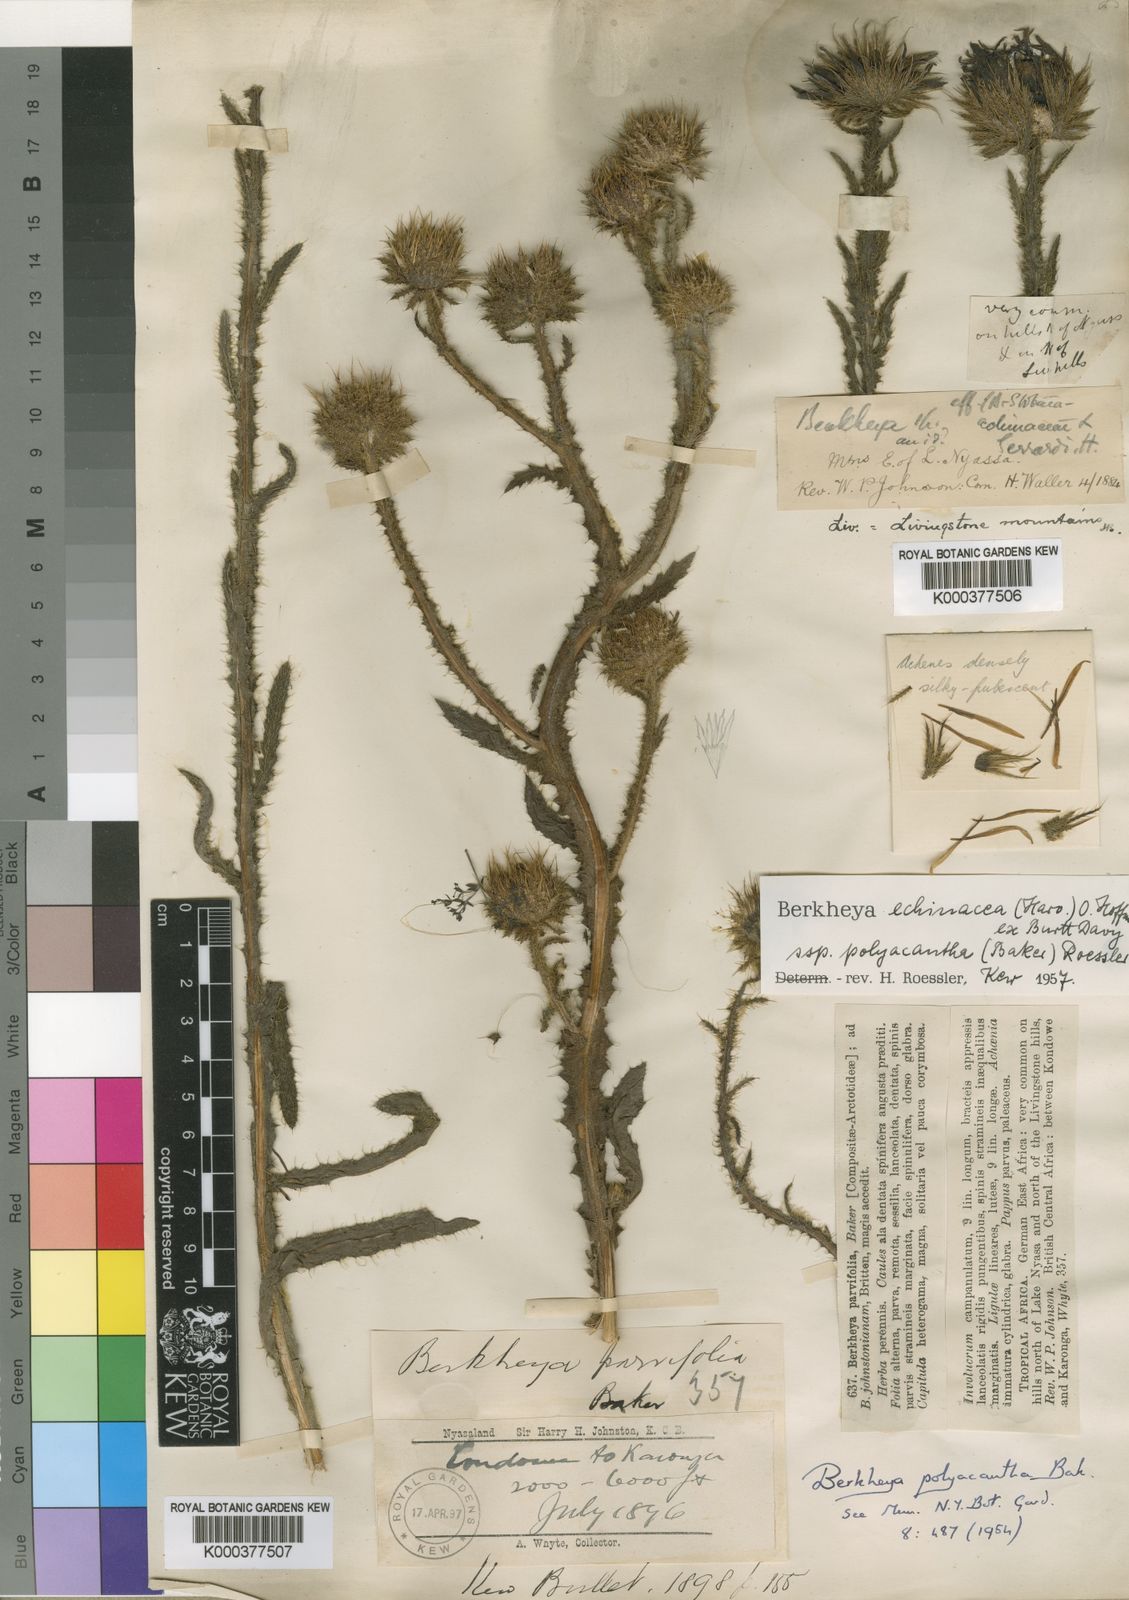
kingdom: Plantae
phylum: Tracheophyta
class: Magnoliopsida
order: Asterales
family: Asteraceae
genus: Berkheya
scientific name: Berkheya
